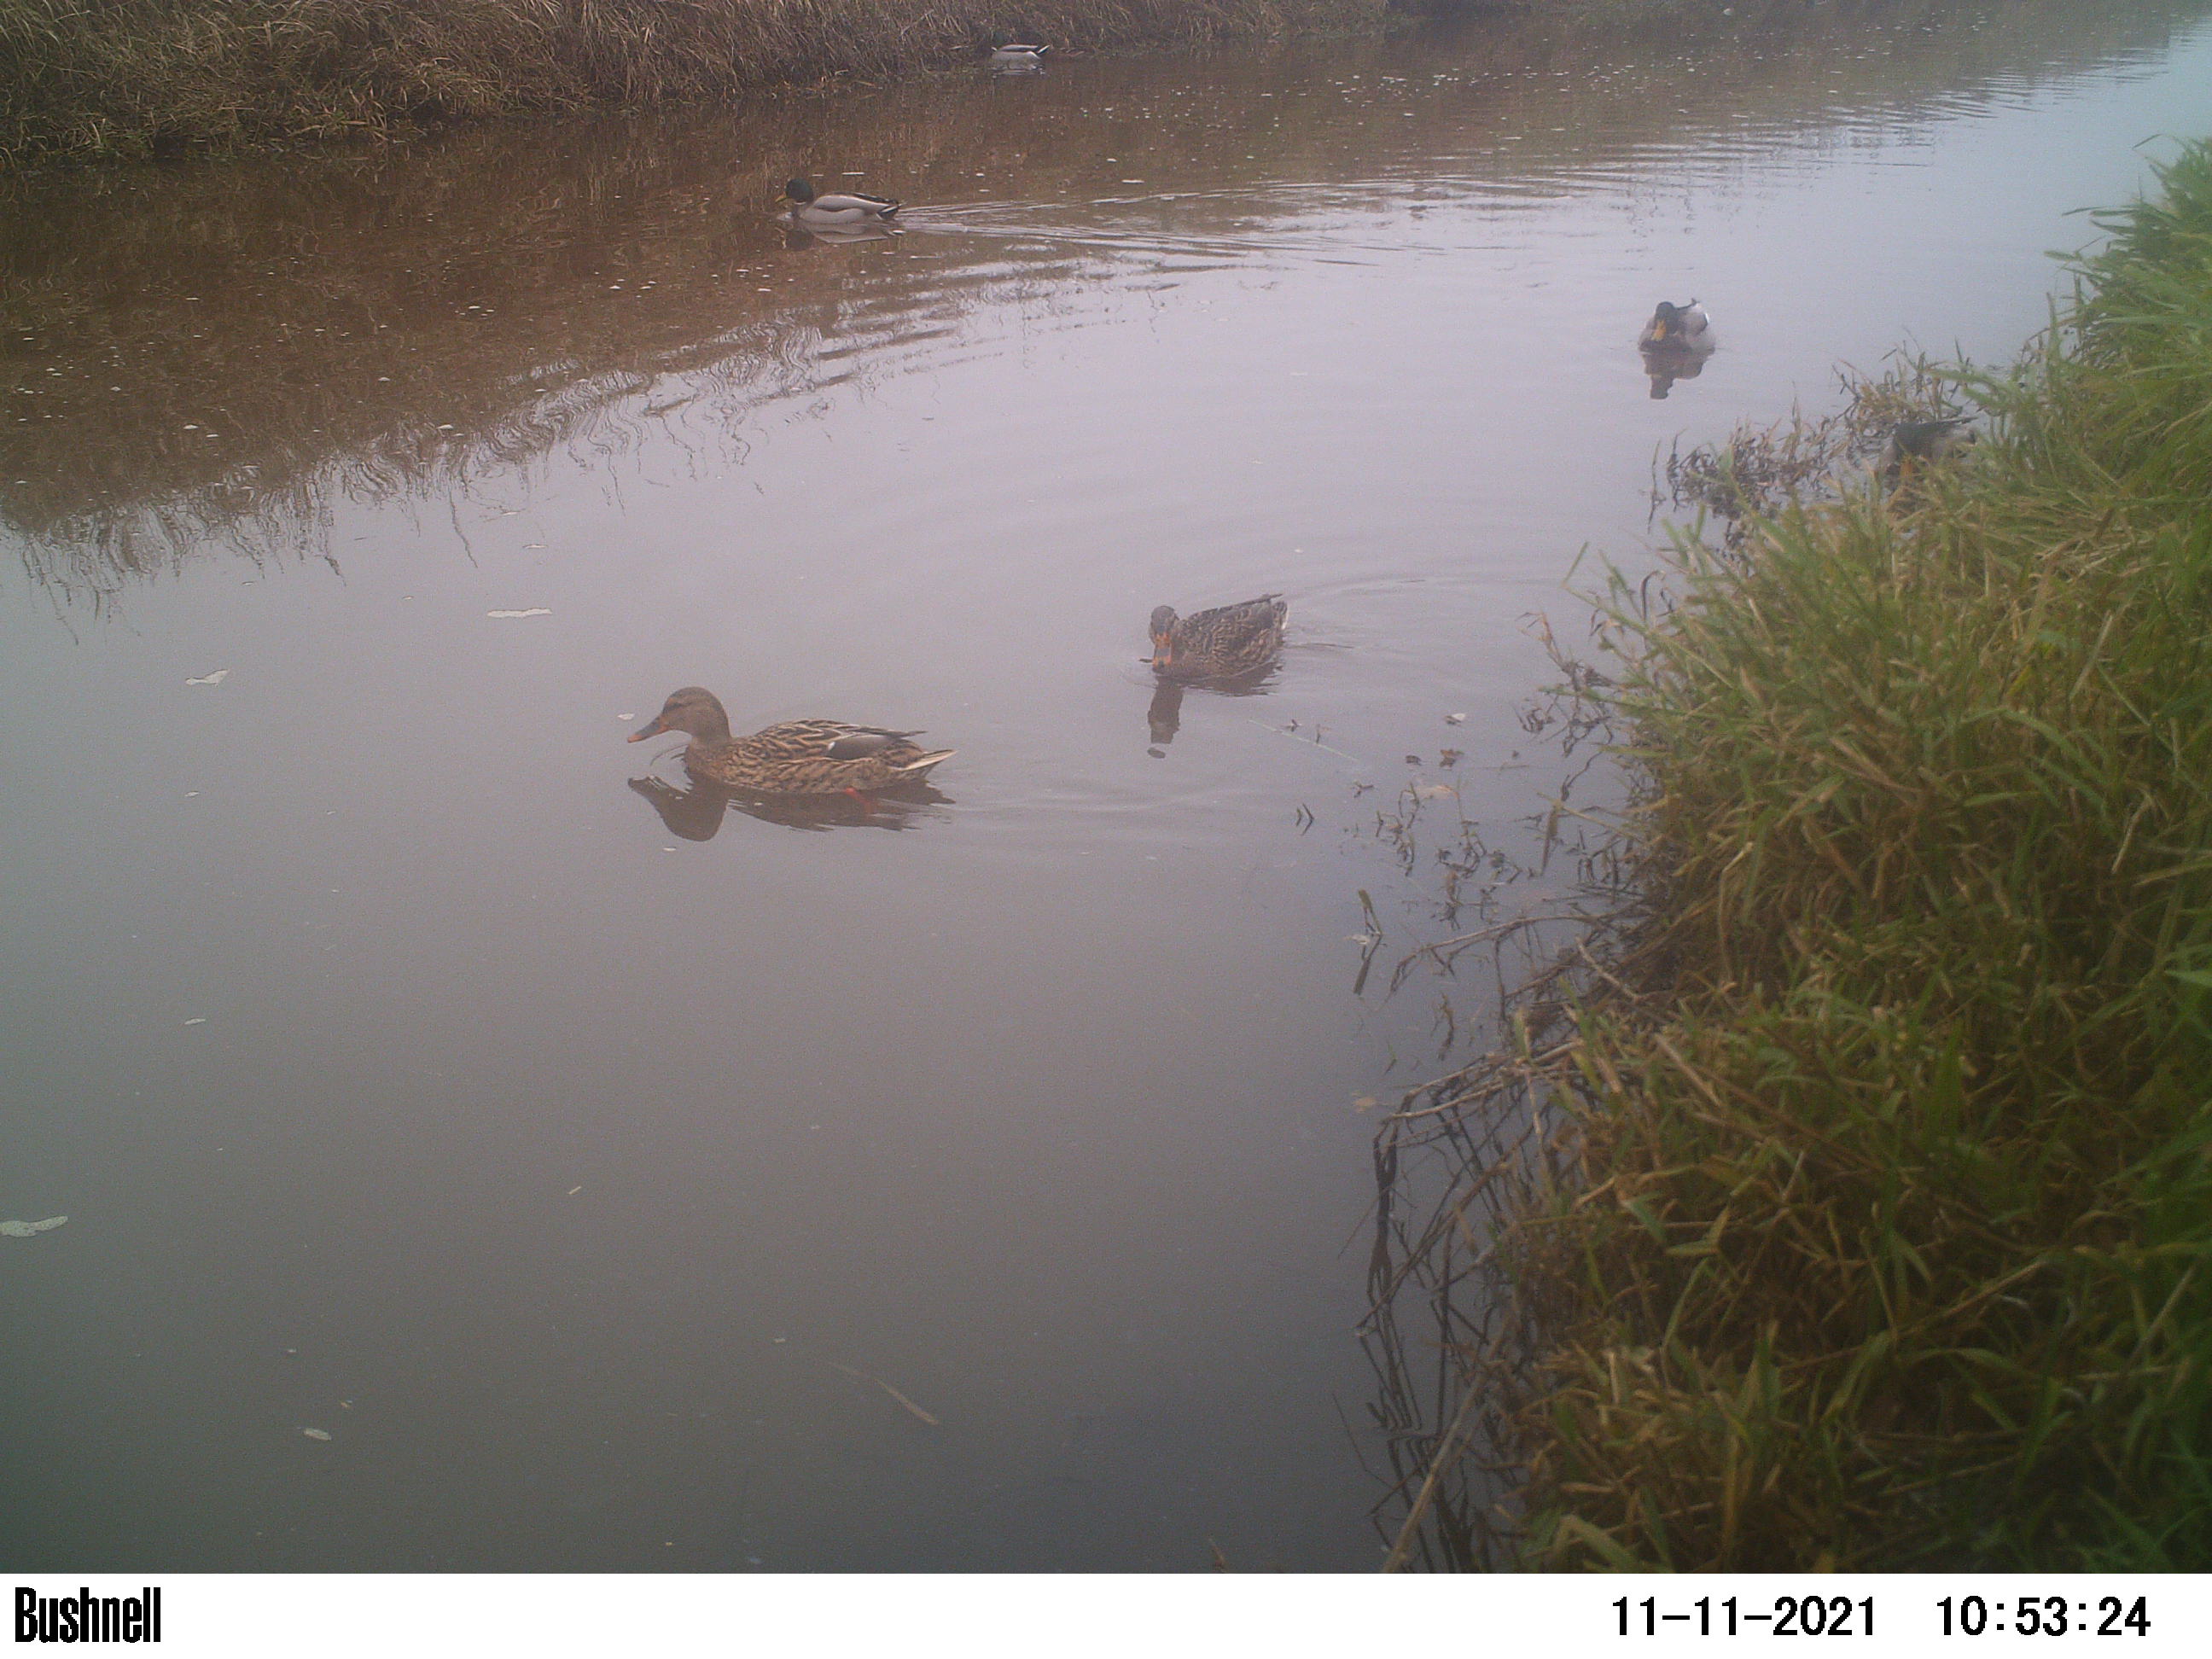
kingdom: Animalia
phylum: Chordata
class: Aves
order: Anseriformes
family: Anatidae
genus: Anas
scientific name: Anas
